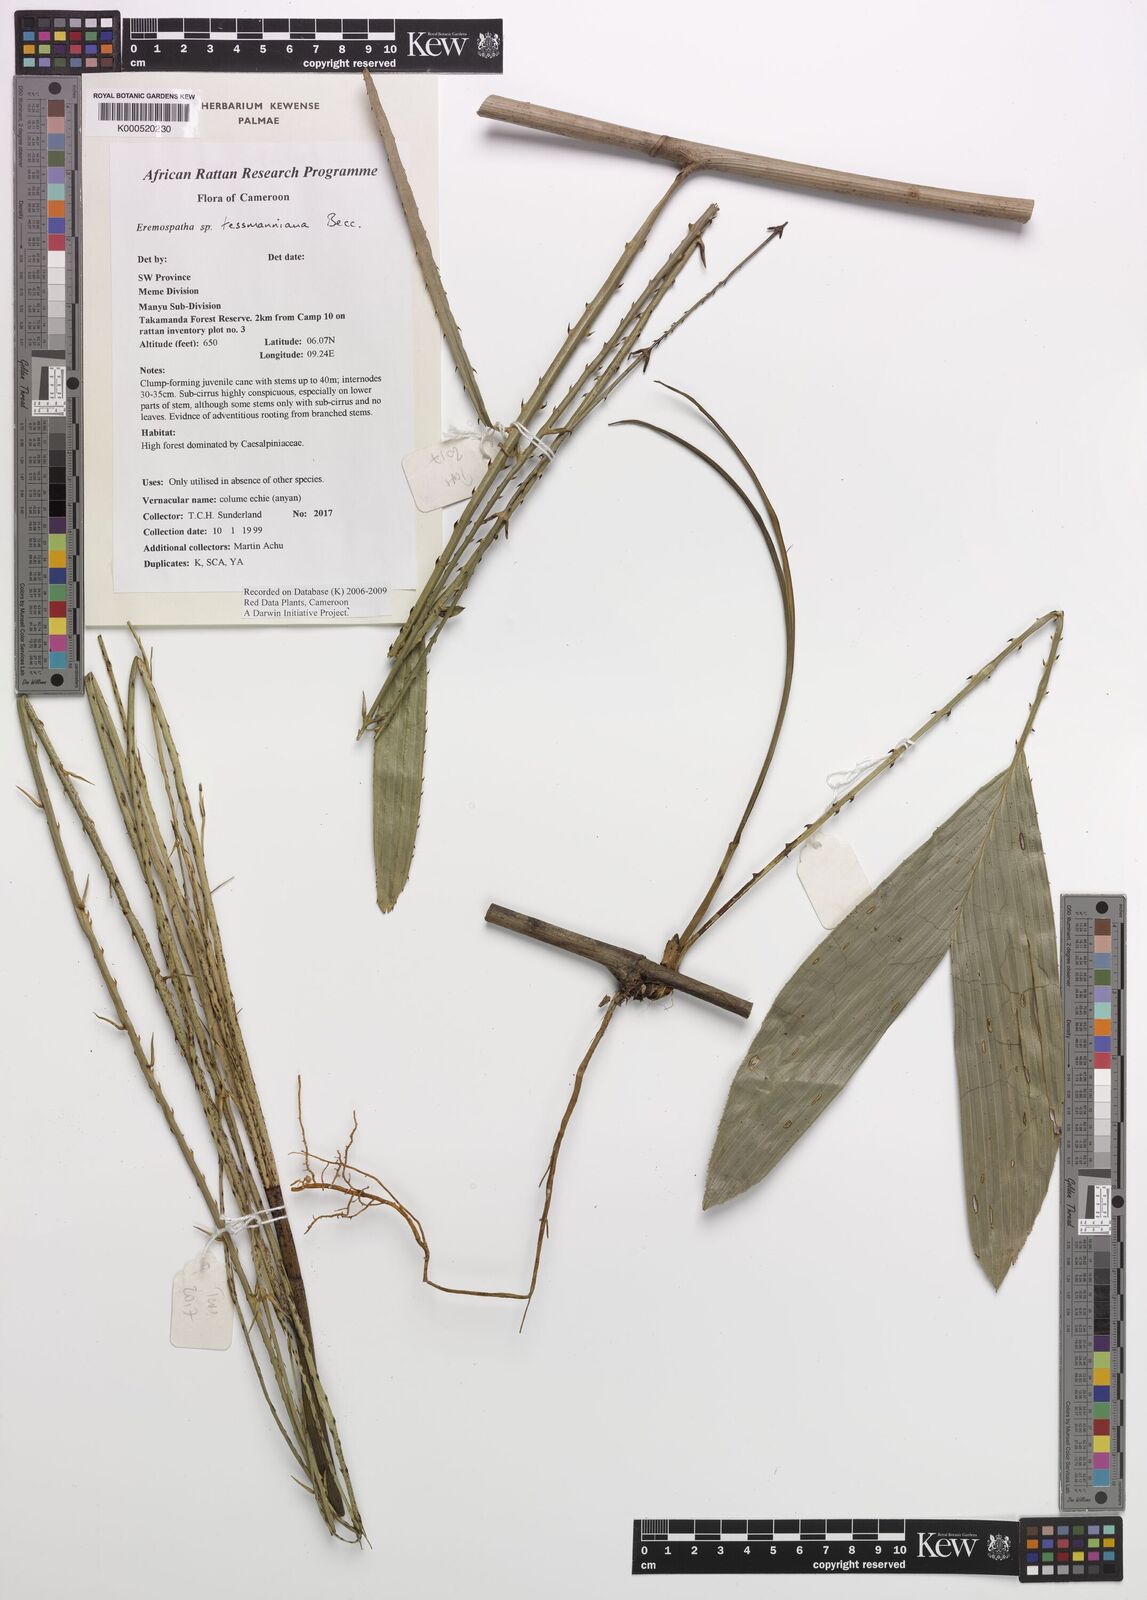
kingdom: Plantae
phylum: Tracheophyta
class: Liliopsida
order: Arecales
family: Arecaceae
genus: Eremospatha
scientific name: Eremospatha tessmanniana
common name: Rattan
